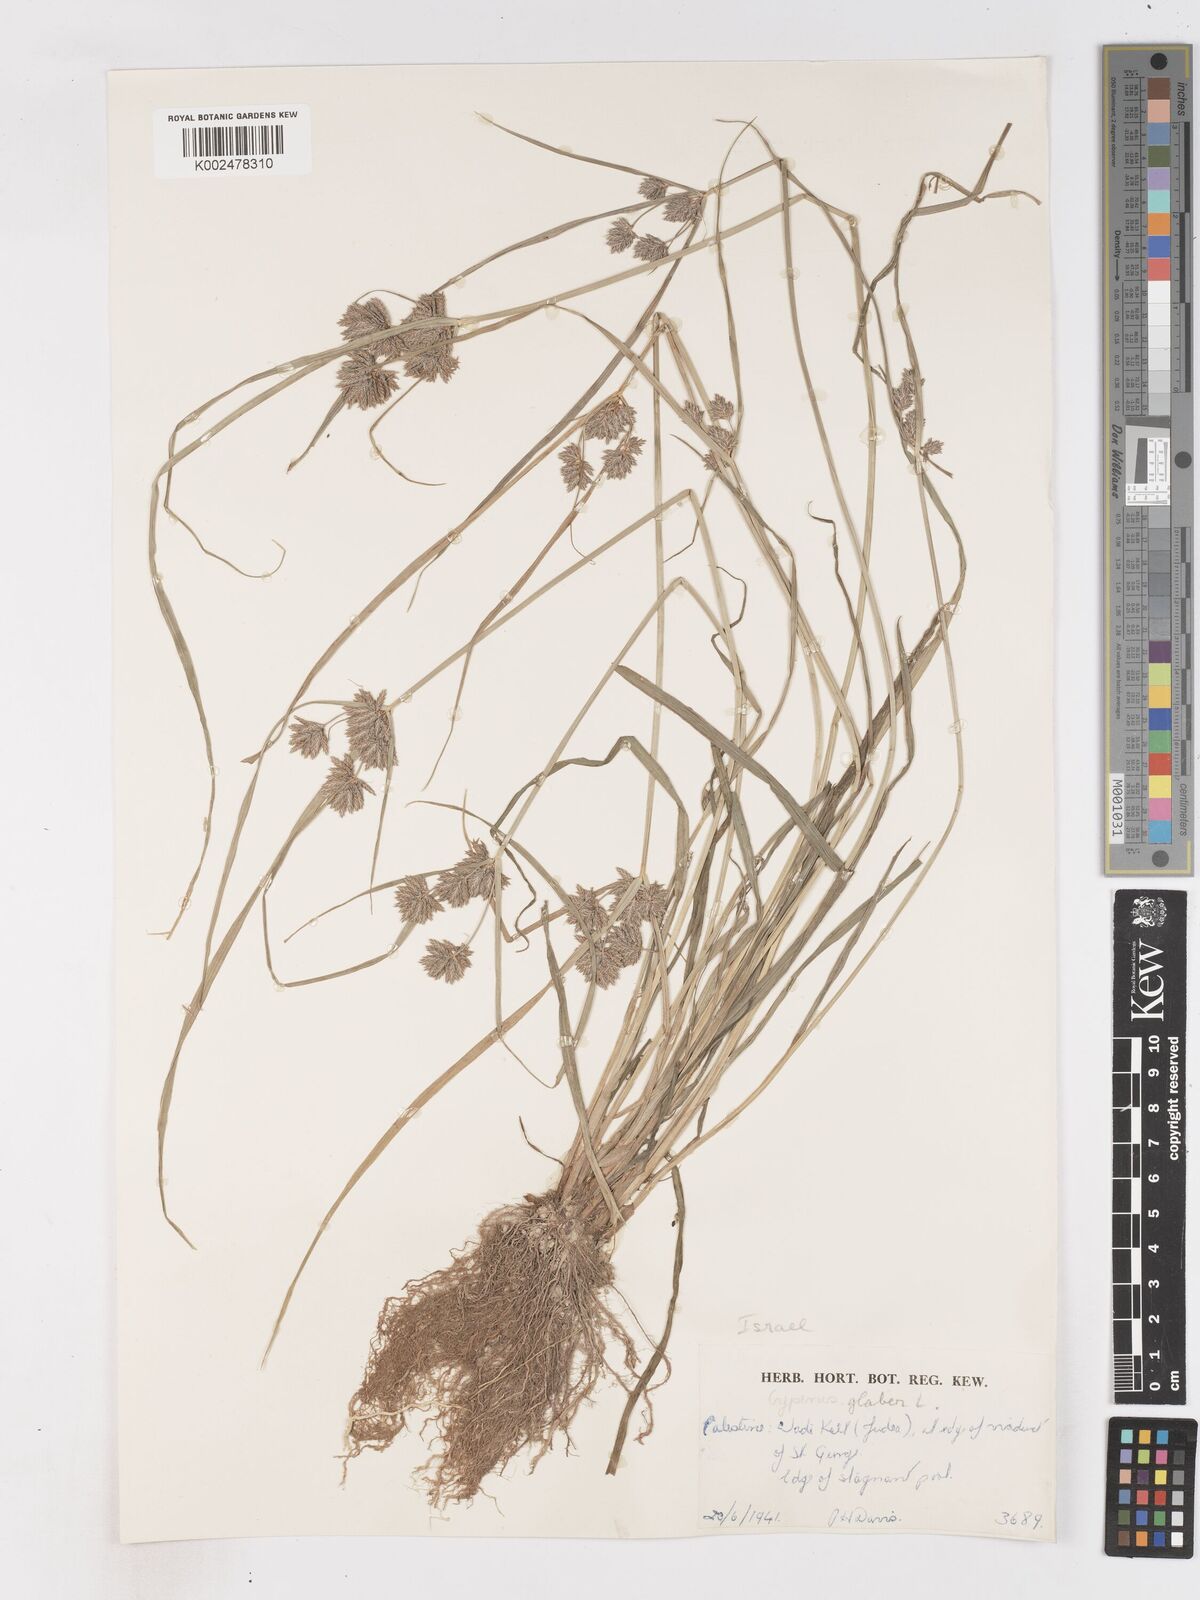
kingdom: Plantae
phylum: Tracheophyta
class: Liliopsida
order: Poales
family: Cyperaceae
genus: Cyperus
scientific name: Cyperus glaber
